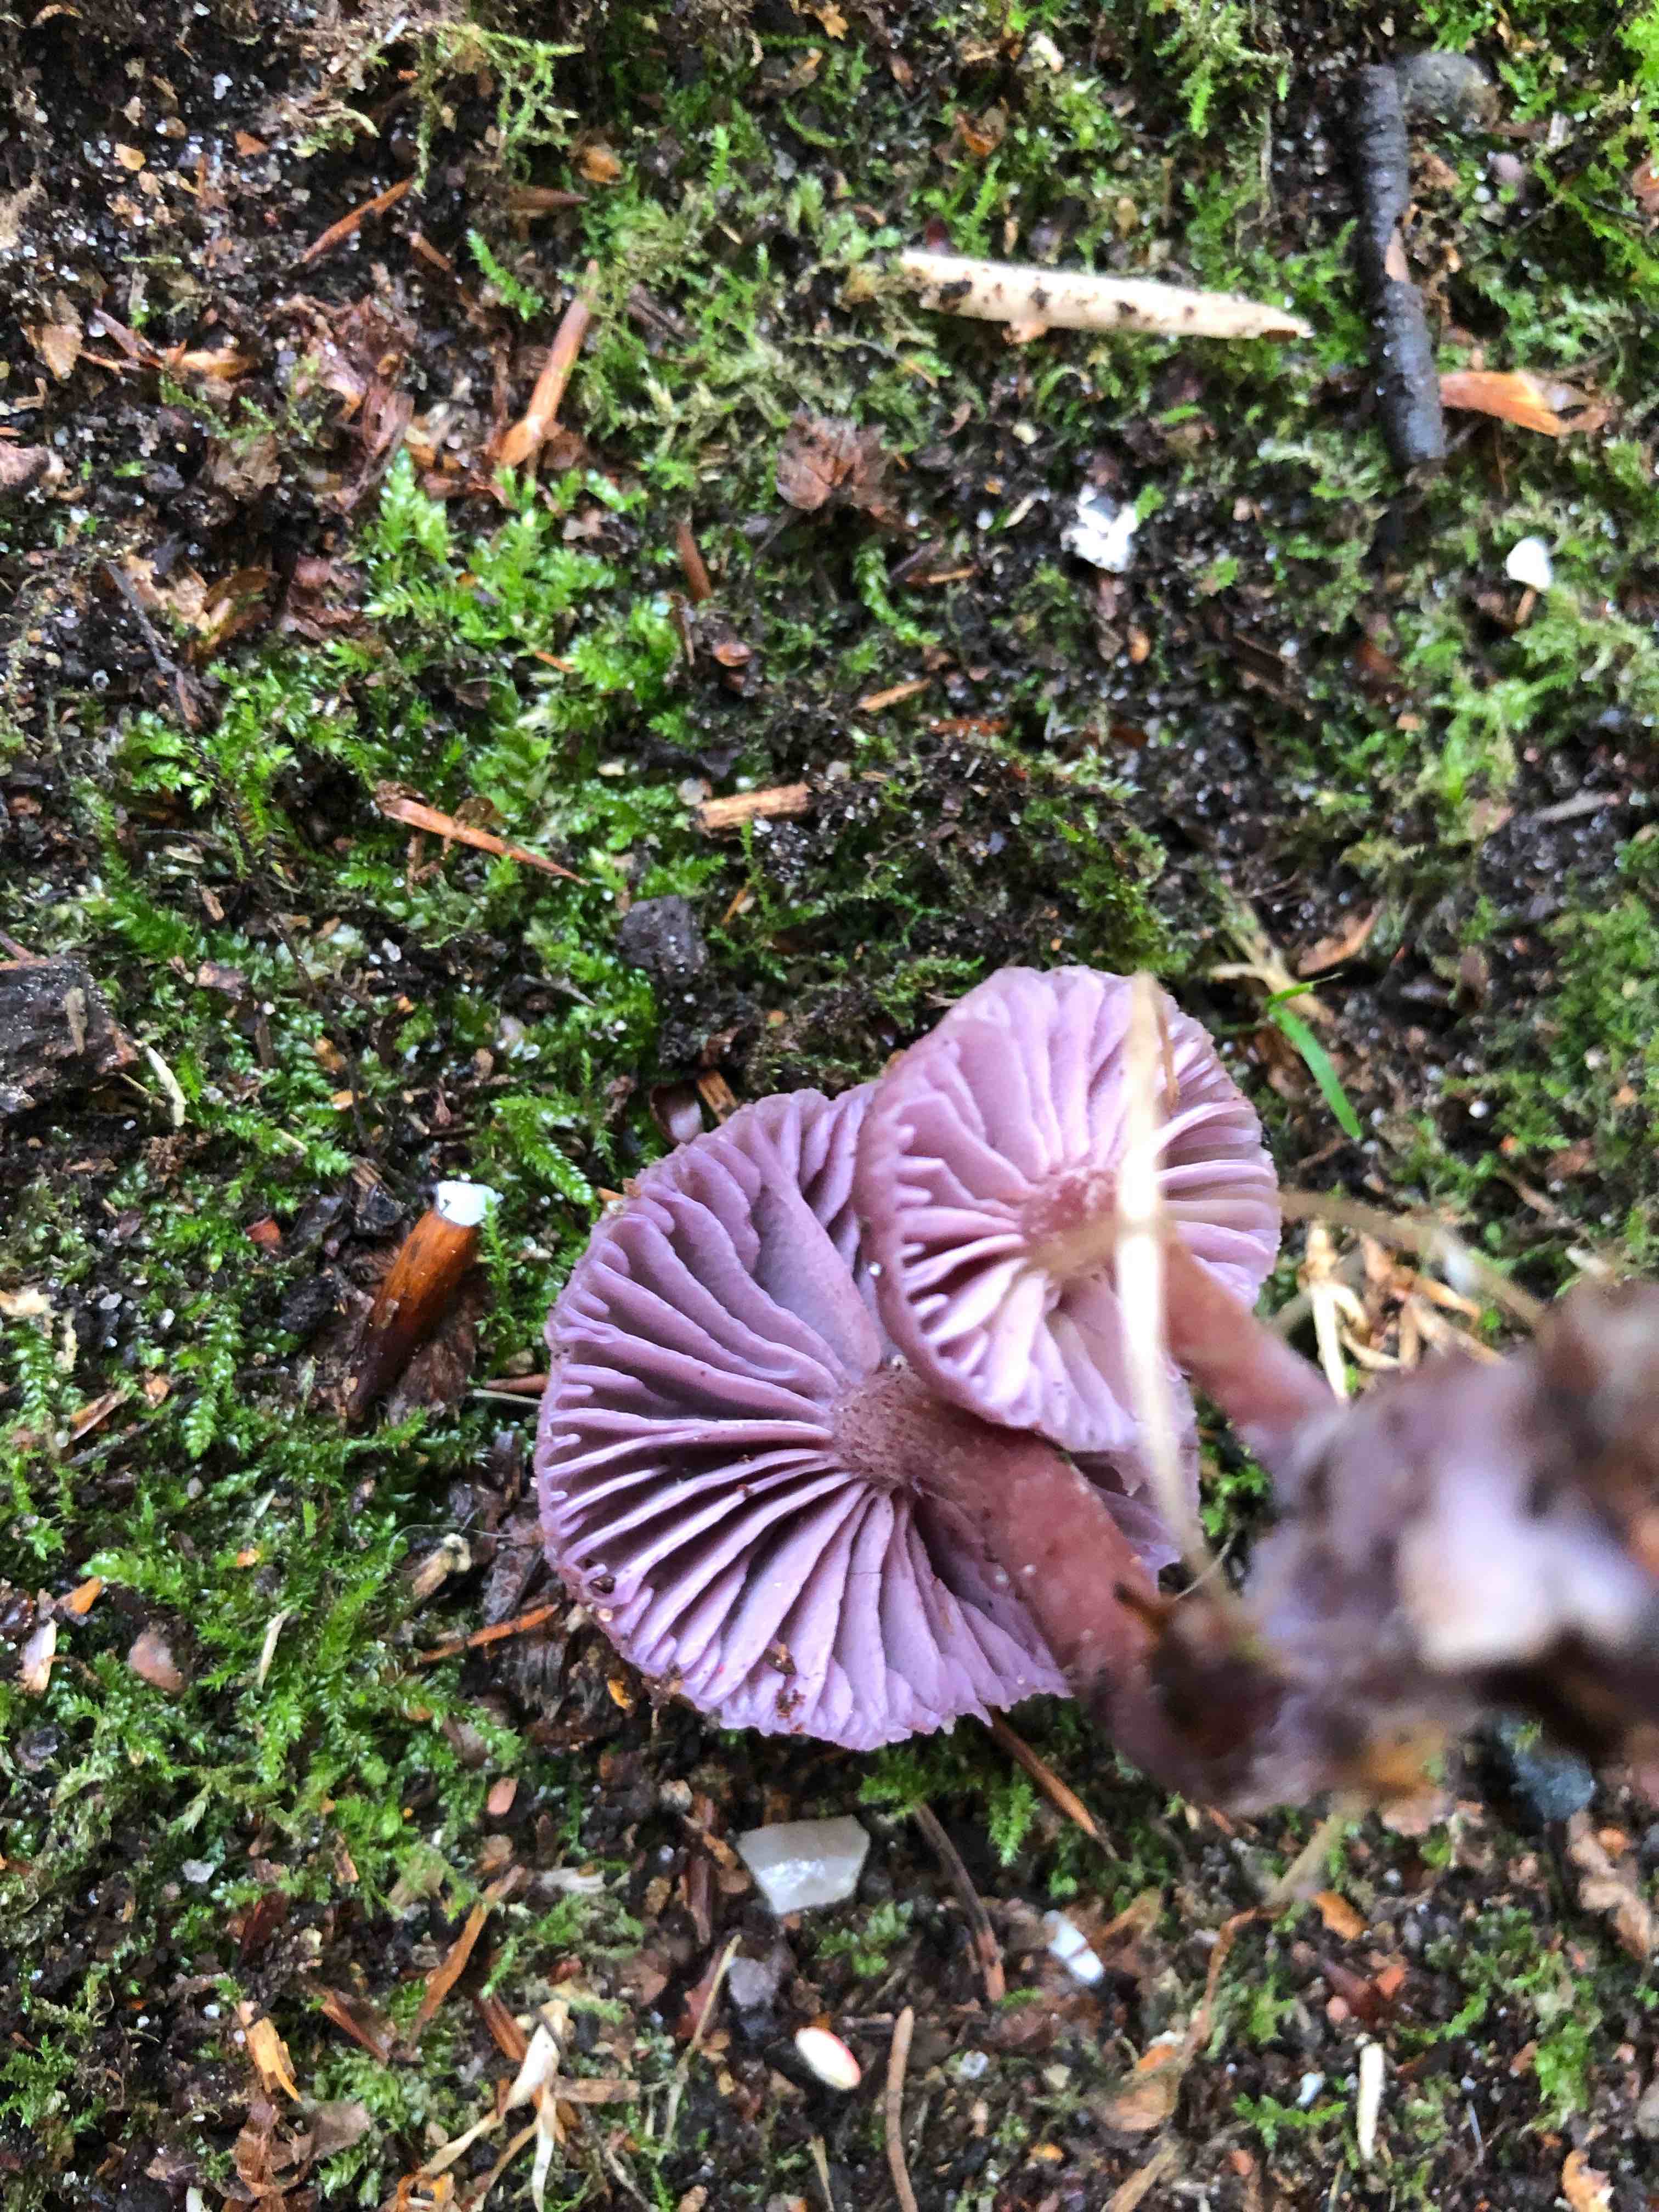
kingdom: Fungi
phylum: Basidiomycota
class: Agaricomycetes
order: Agaricales
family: Hydnangiaceae
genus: Laccaria
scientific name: Laccaria amethystina
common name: violet ametysthat
